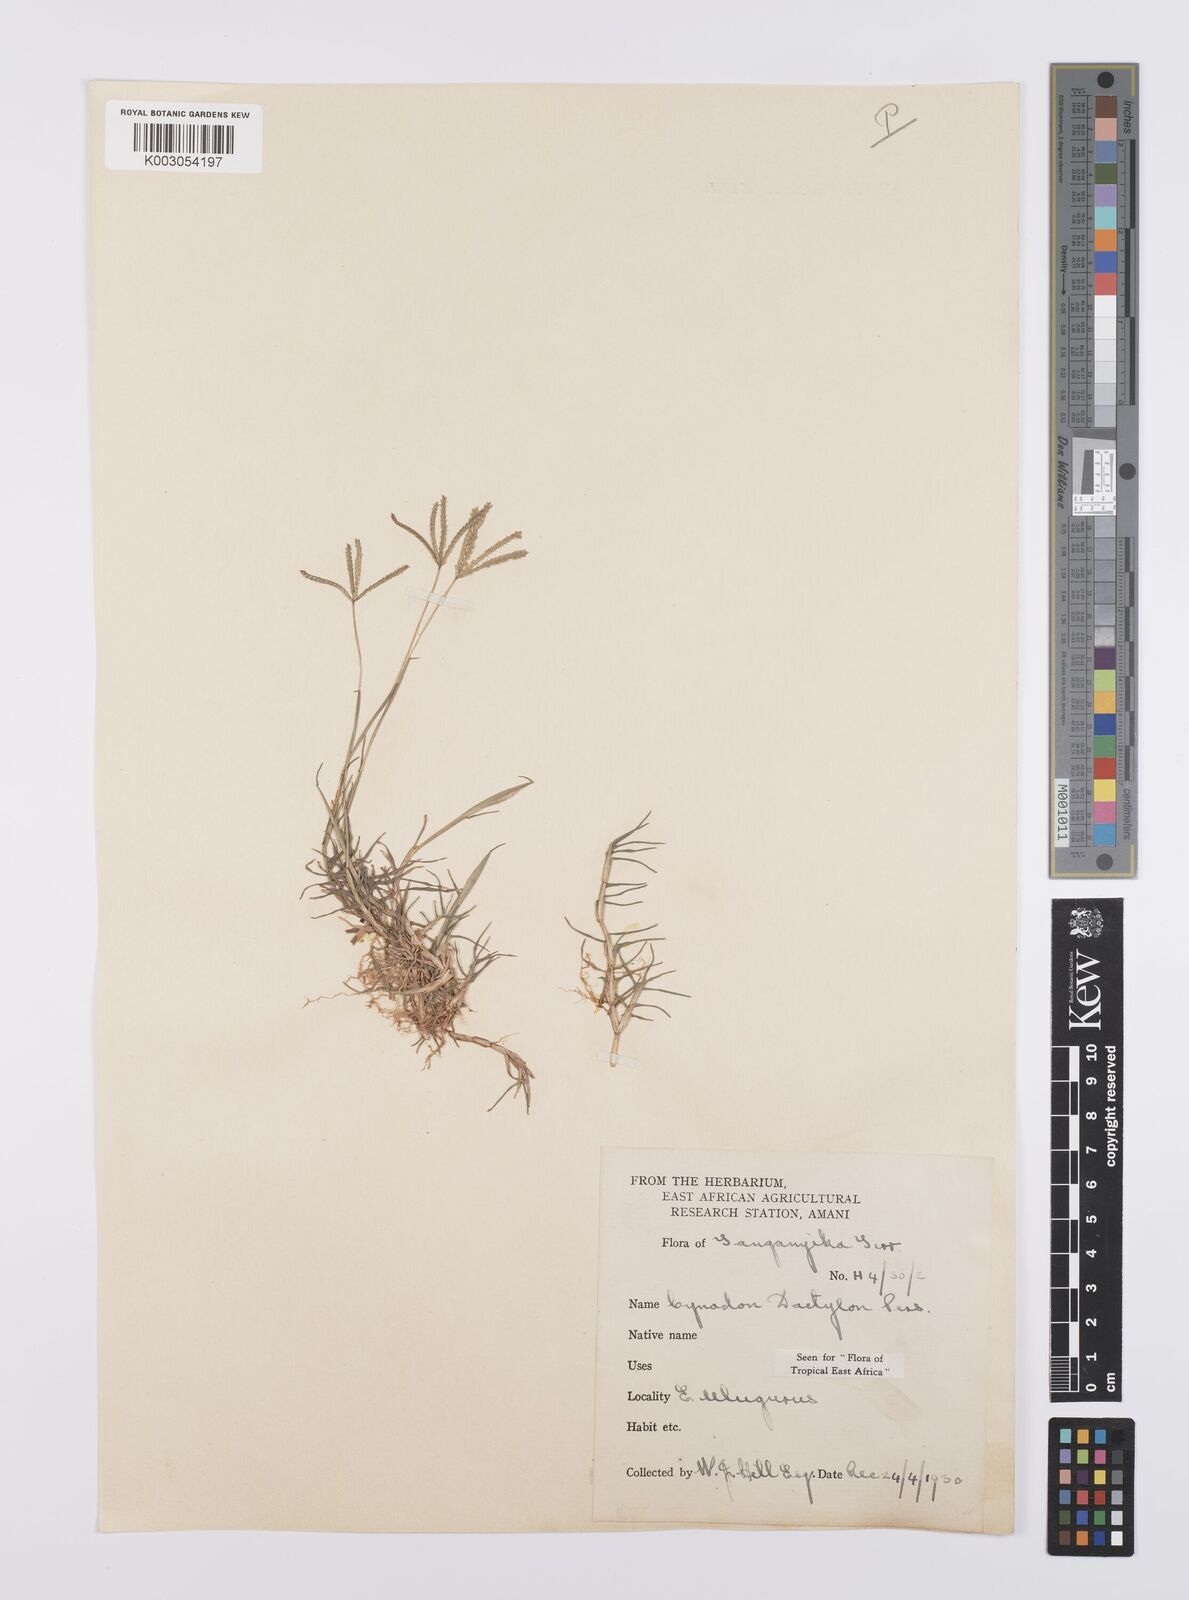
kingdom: Plantae
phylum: Tracheophyta
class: Liliopsida
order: Poales
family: Poaceae
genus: Cynodon
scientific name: Cynodon dactylon
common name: Bermuda grass
